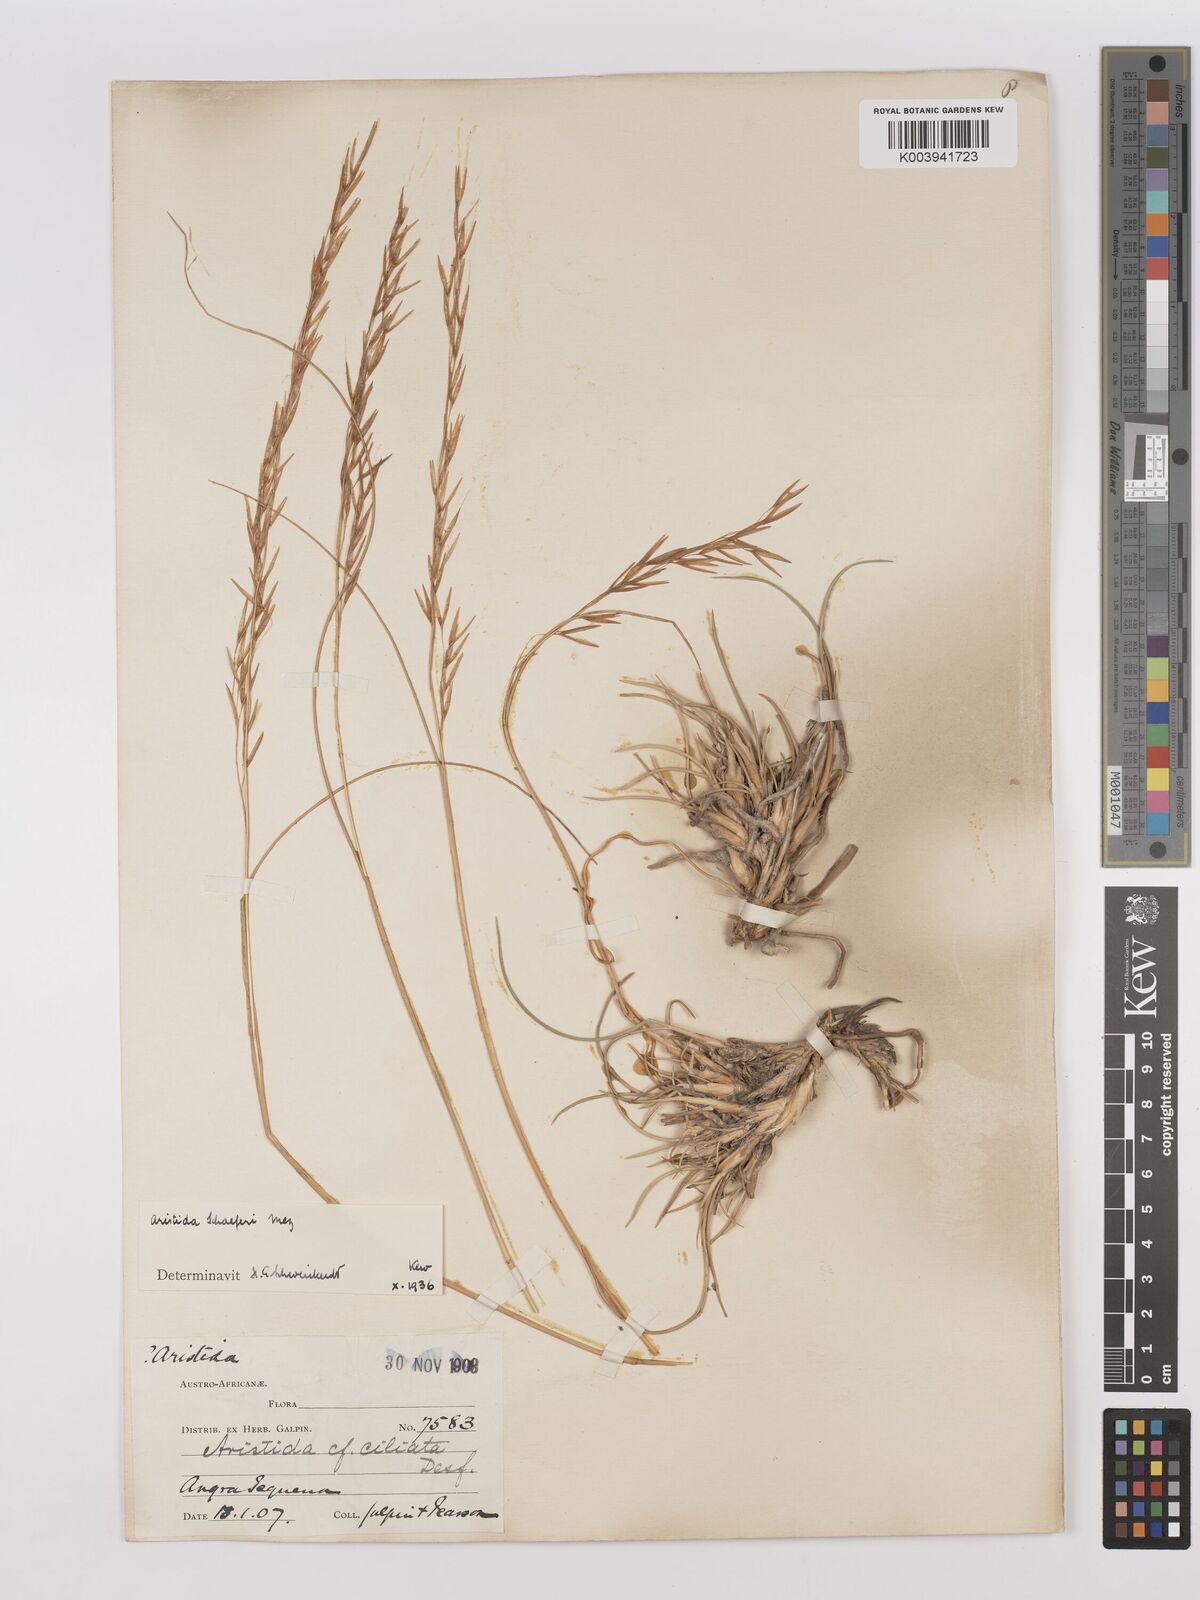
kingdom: Plantae
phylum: Tracheophyta
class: Liliopsida
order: Poales
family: Poaceae
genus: Stipagrostis
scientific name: Stipagrostis schaeferi
